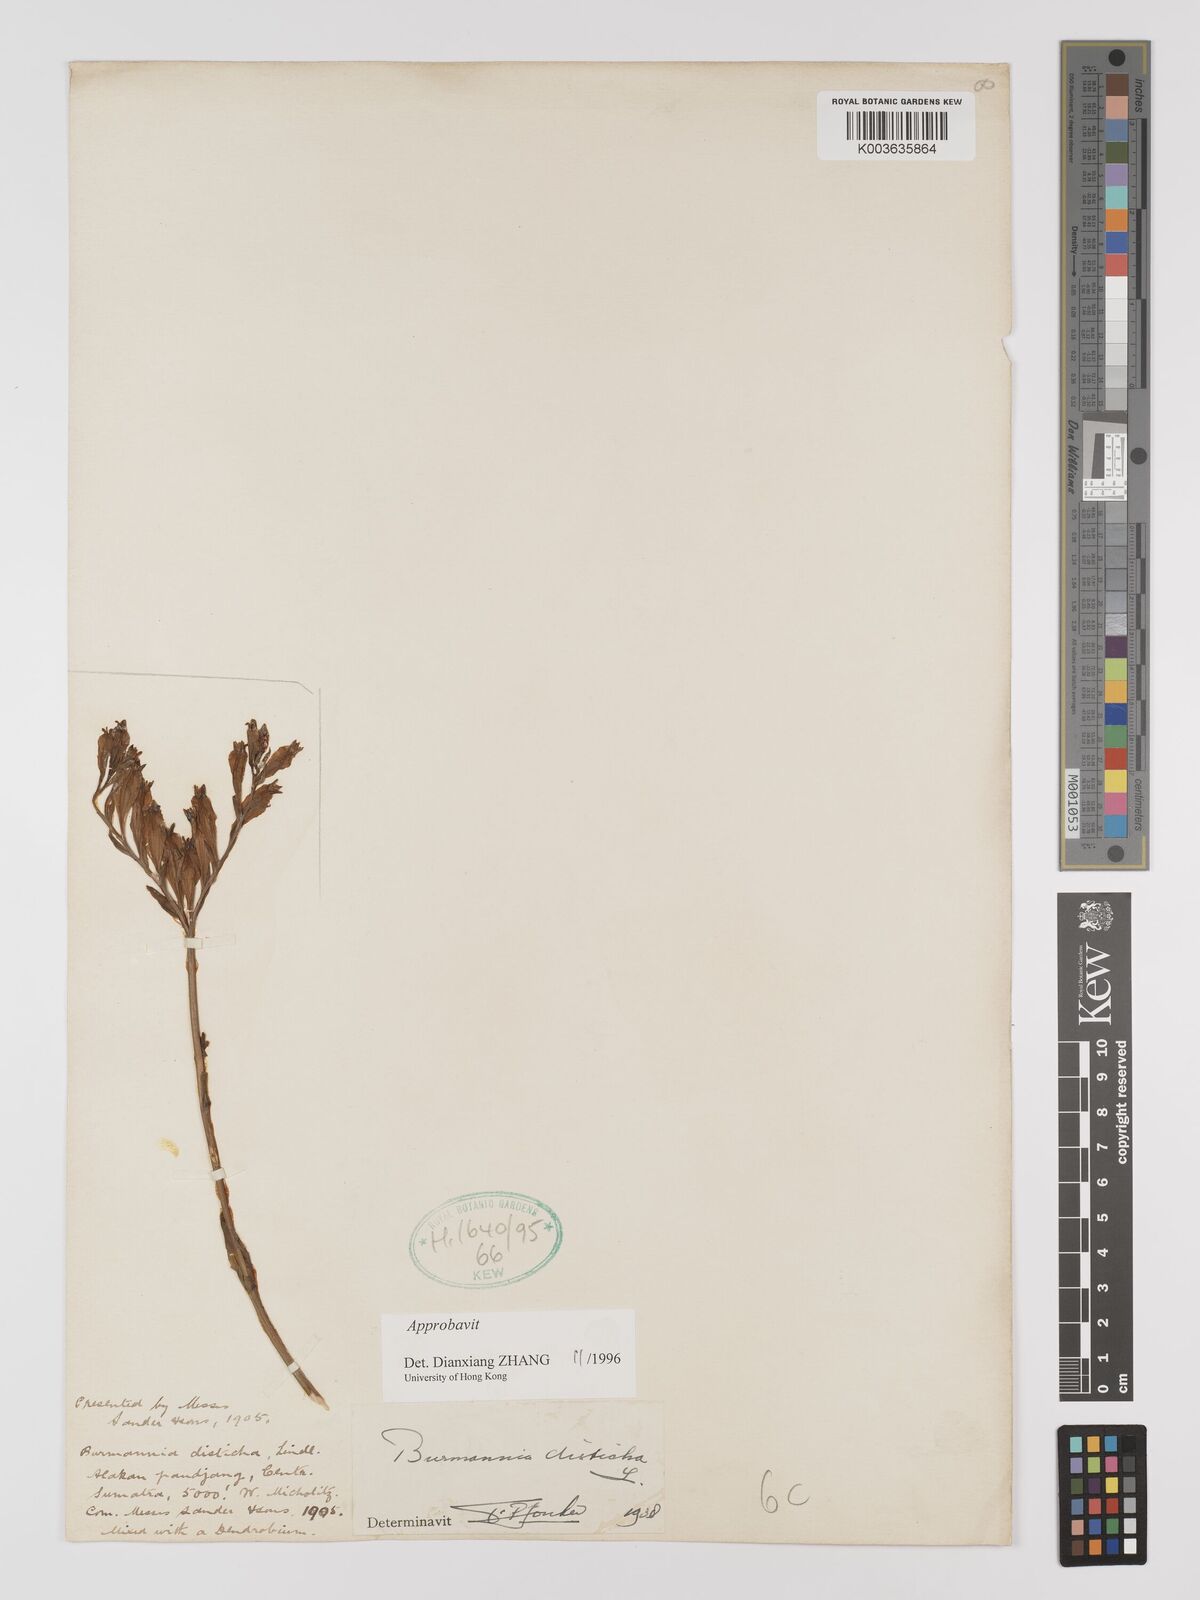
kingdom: Plantae
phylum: Tracheophyta
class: Liliopsida
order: Dioscoreales
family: Burmanniaceae
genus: Burmannia
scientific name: Burmannia disticha
